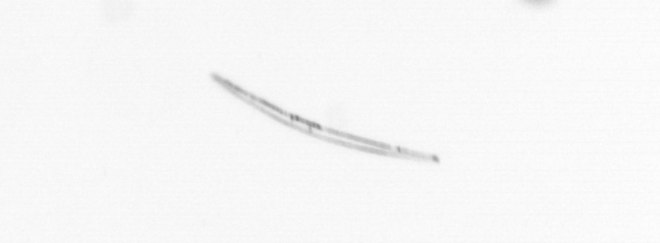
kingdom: Chromista
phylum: Ochrophyta
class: Bacillariophyceae
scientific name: Bacillariophyceae
